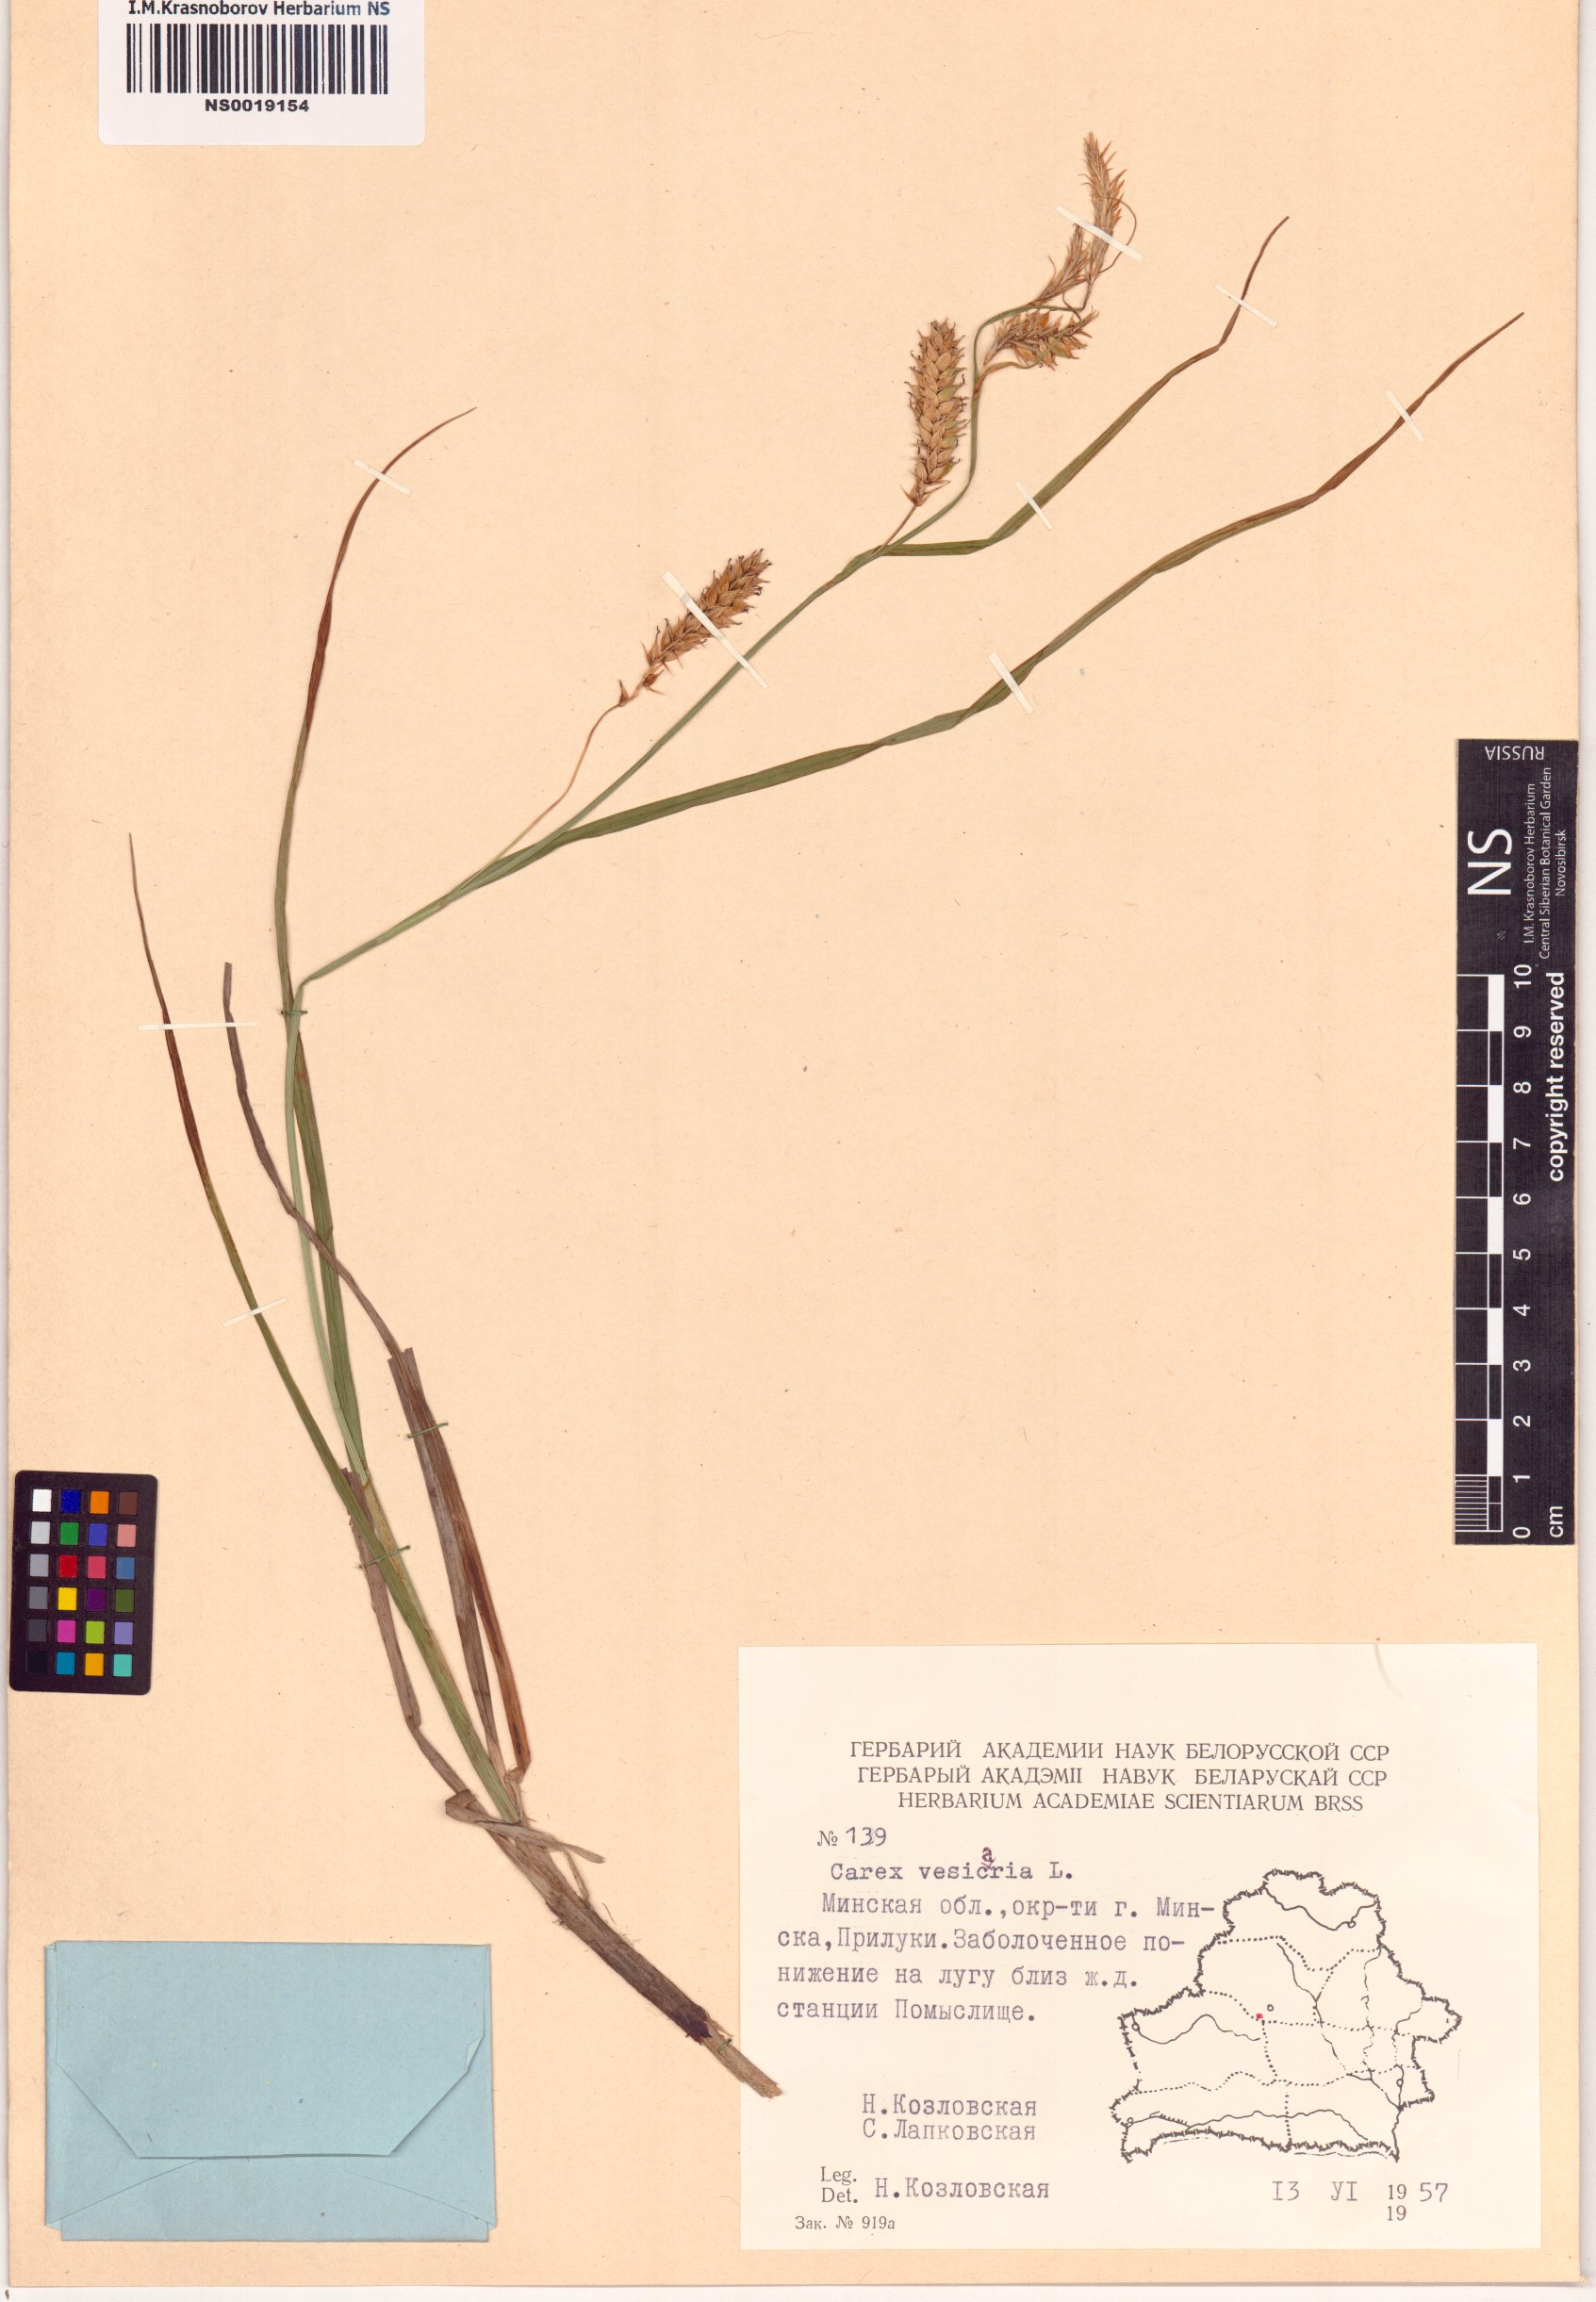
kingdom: Plantae
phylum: Tracheophyta
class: Liliopsida
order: Poales
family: Cyperaceae
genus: Carex
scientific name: Carex vesicaria
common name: Bladder-sedge
